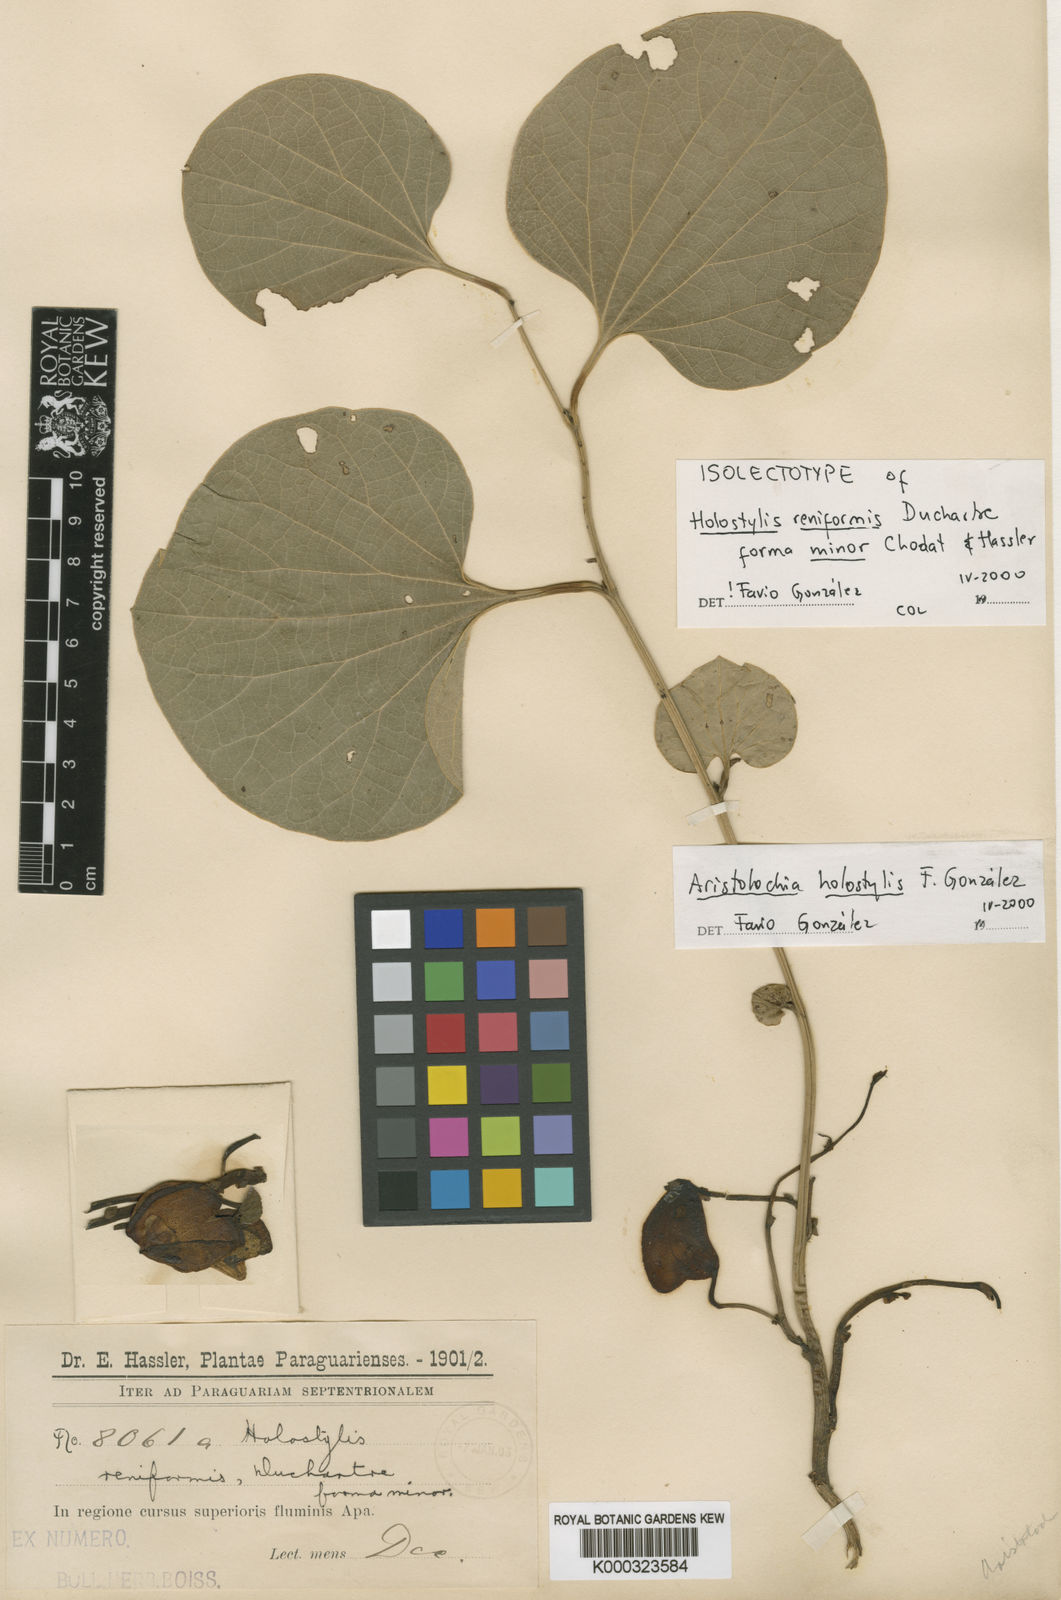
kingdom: Plantae
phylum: Tracheophyta
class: Magnoliopsida
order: Piperales
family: Aristolochiaceae
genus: Aristolochia
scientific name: Aristolochia
